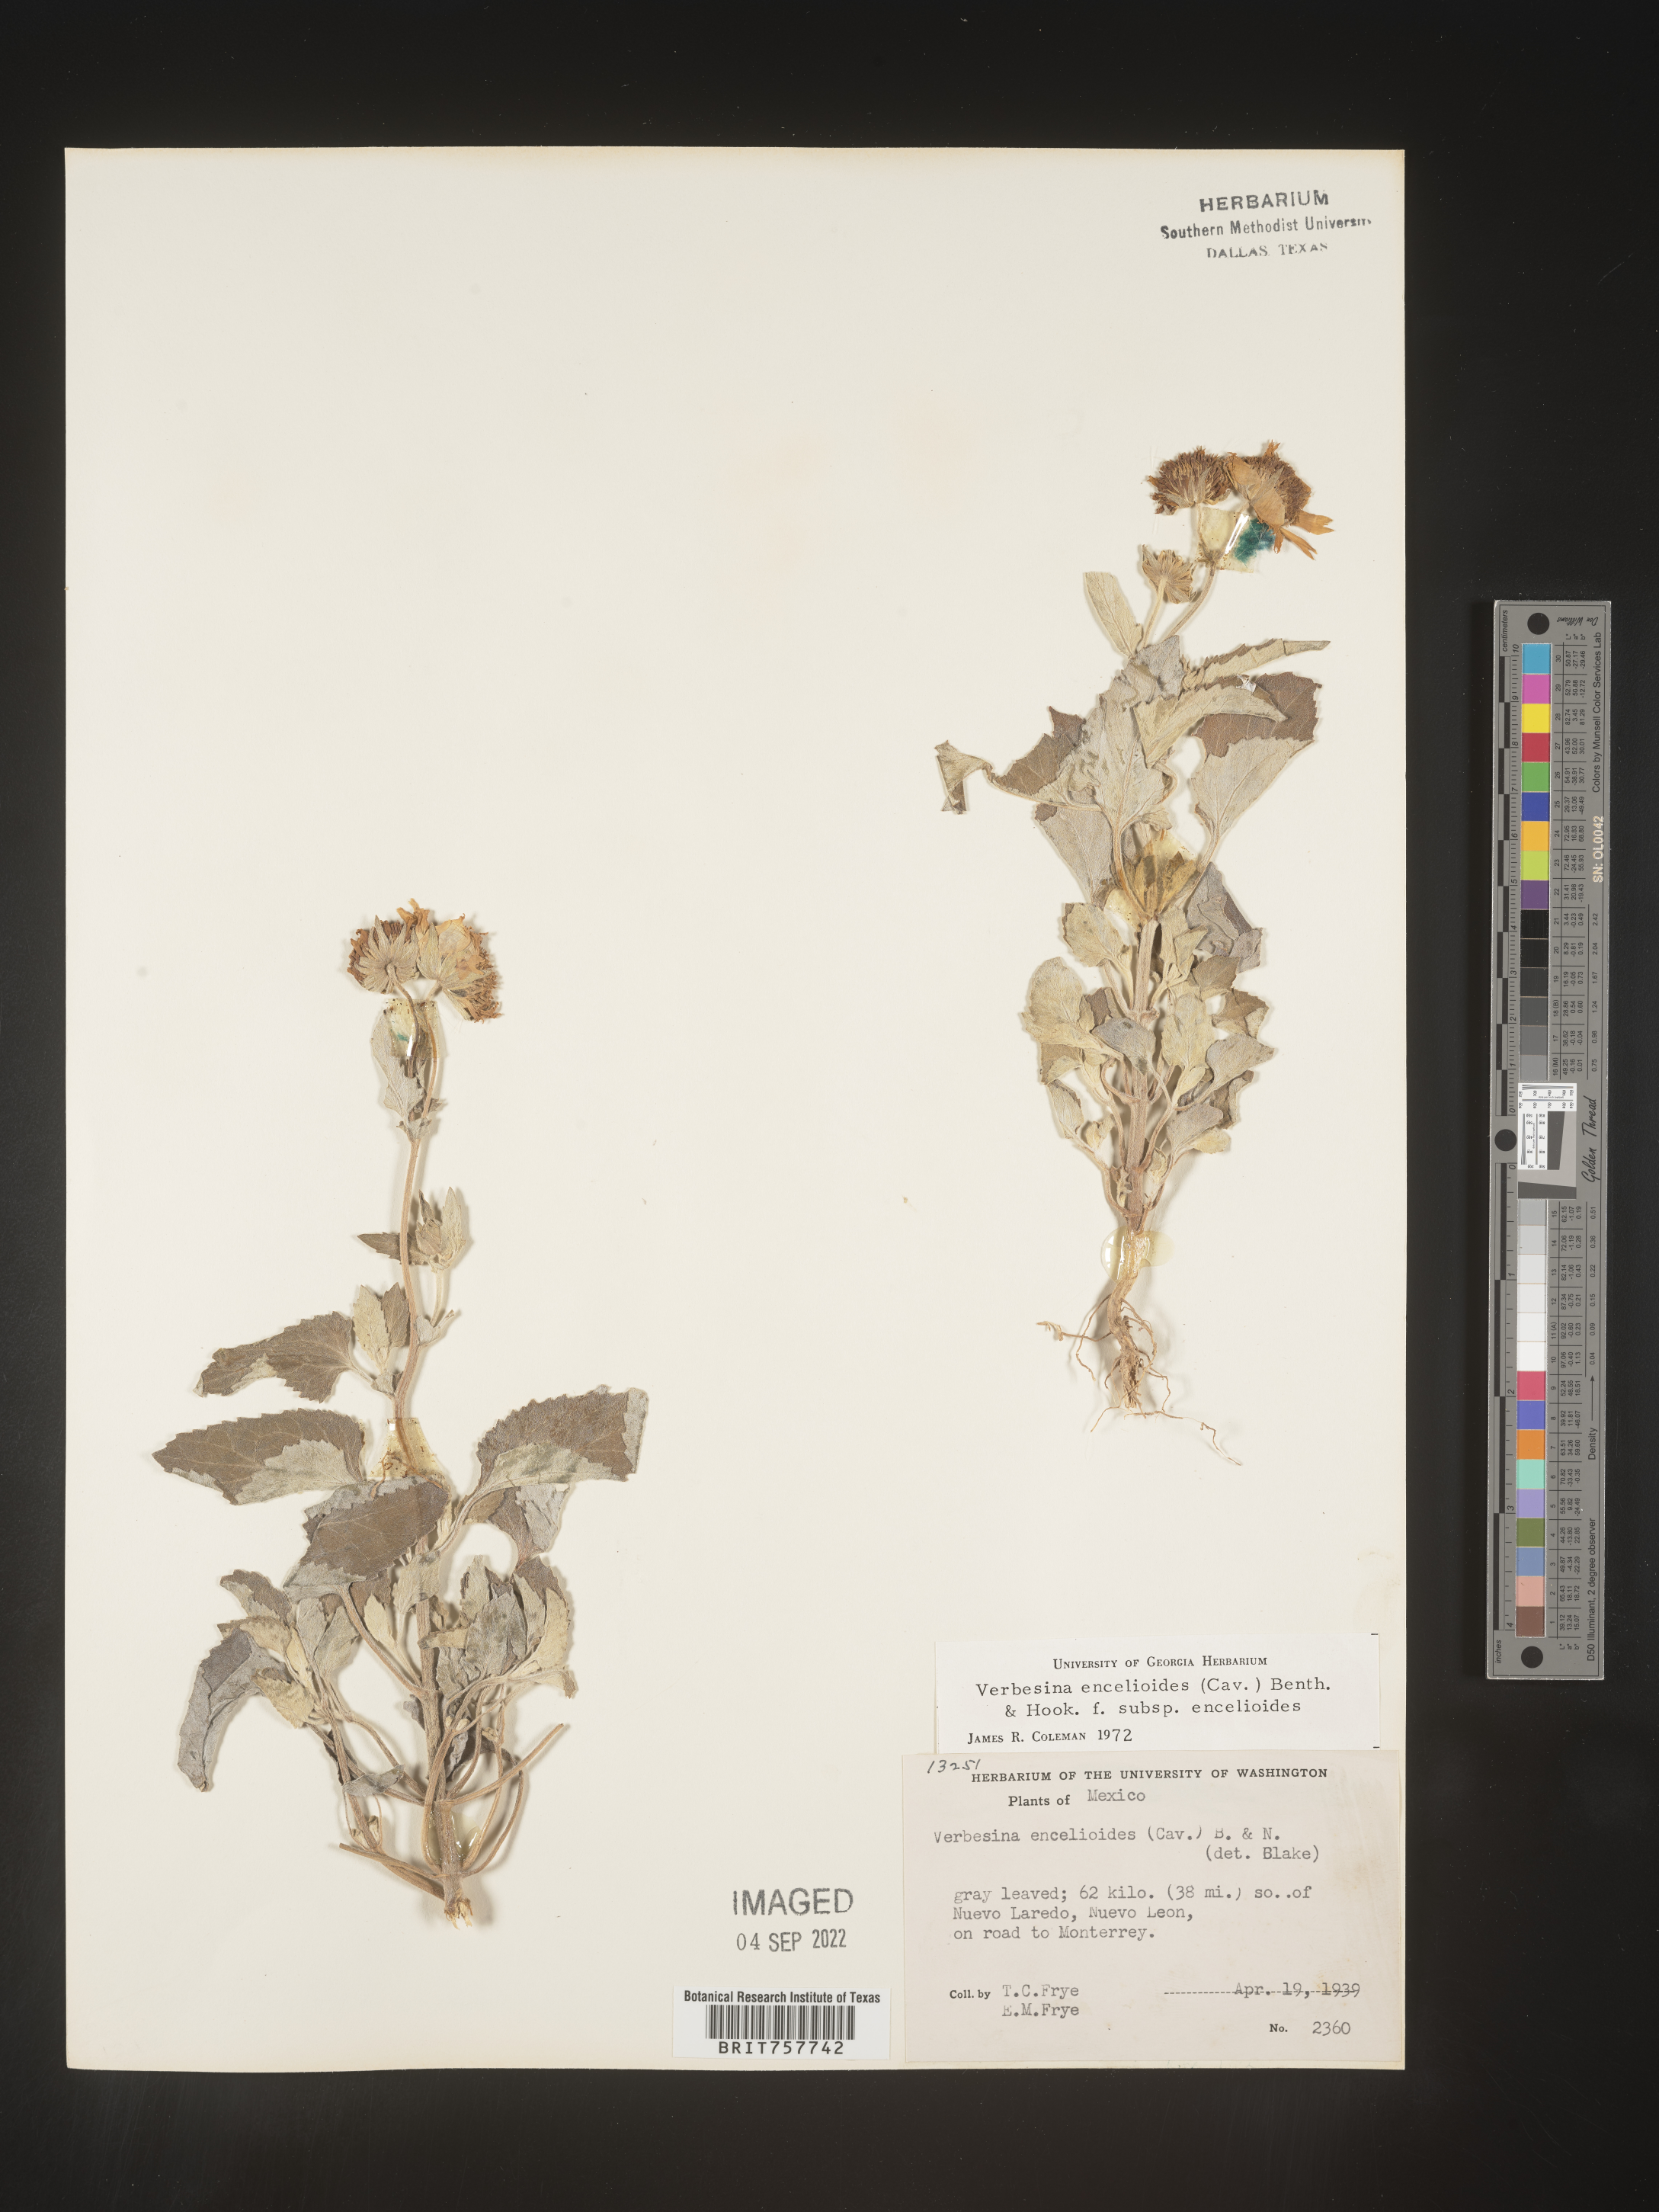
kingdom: Plantae
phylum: Tracheophyta
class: Magnoliopsida
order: Asterales
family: Asteraceae
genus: Verbesina
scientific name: Verbesina
